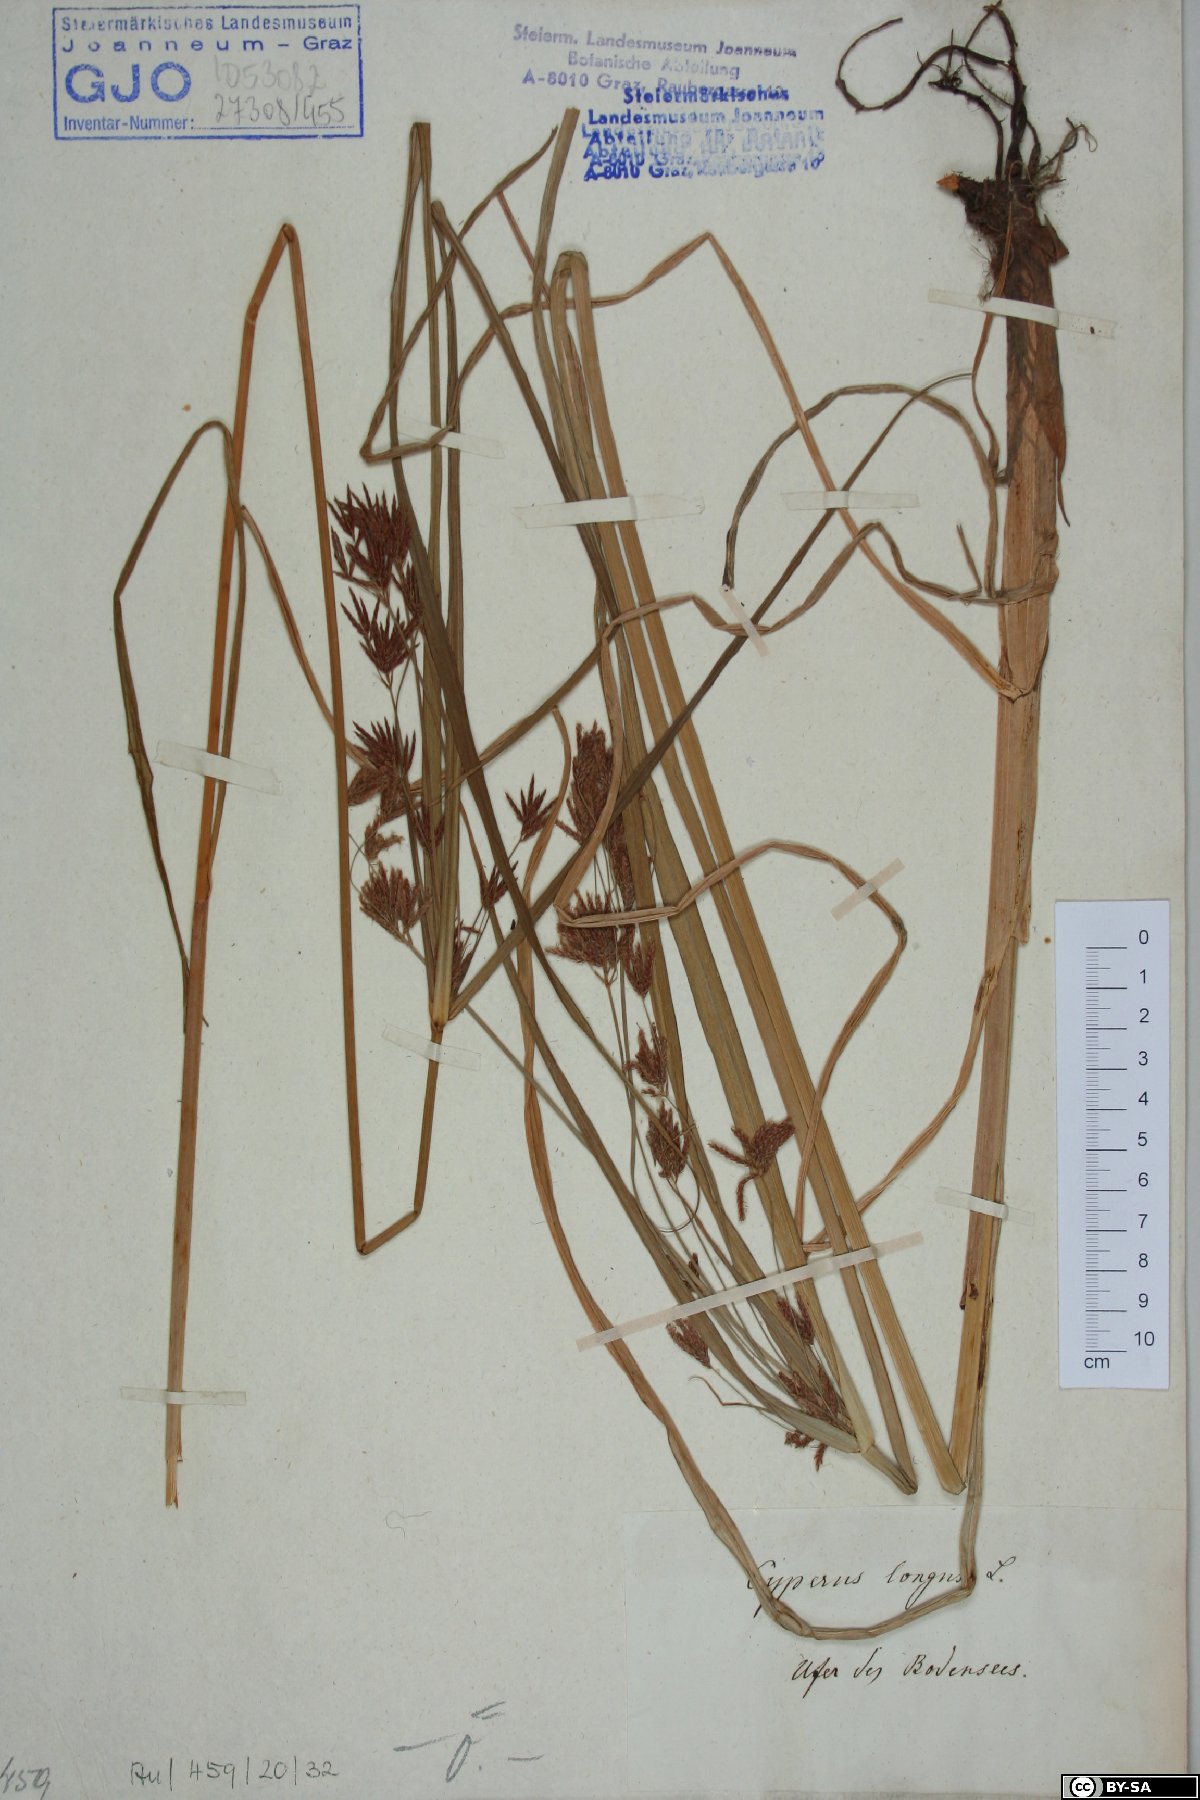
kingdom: Plantae
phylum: Tracheophyta
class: Liliopsida
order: Poales
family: Cyperaceae
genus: Cyperus
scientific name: Cyperus longus
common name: Galingale
